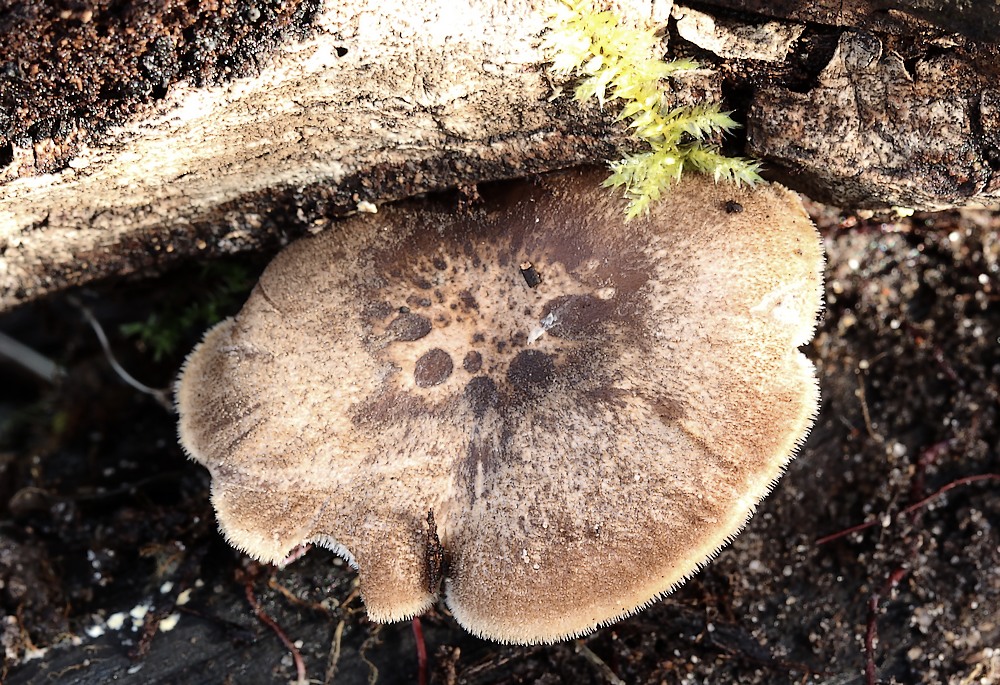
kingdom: Fungi
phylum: Basidiomycota
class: Agaricomycetes
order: Polyporales
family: Polyporaceae
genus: Lentinus
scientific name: Lentinus brumalis
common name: vinter-stilkporesvamp
